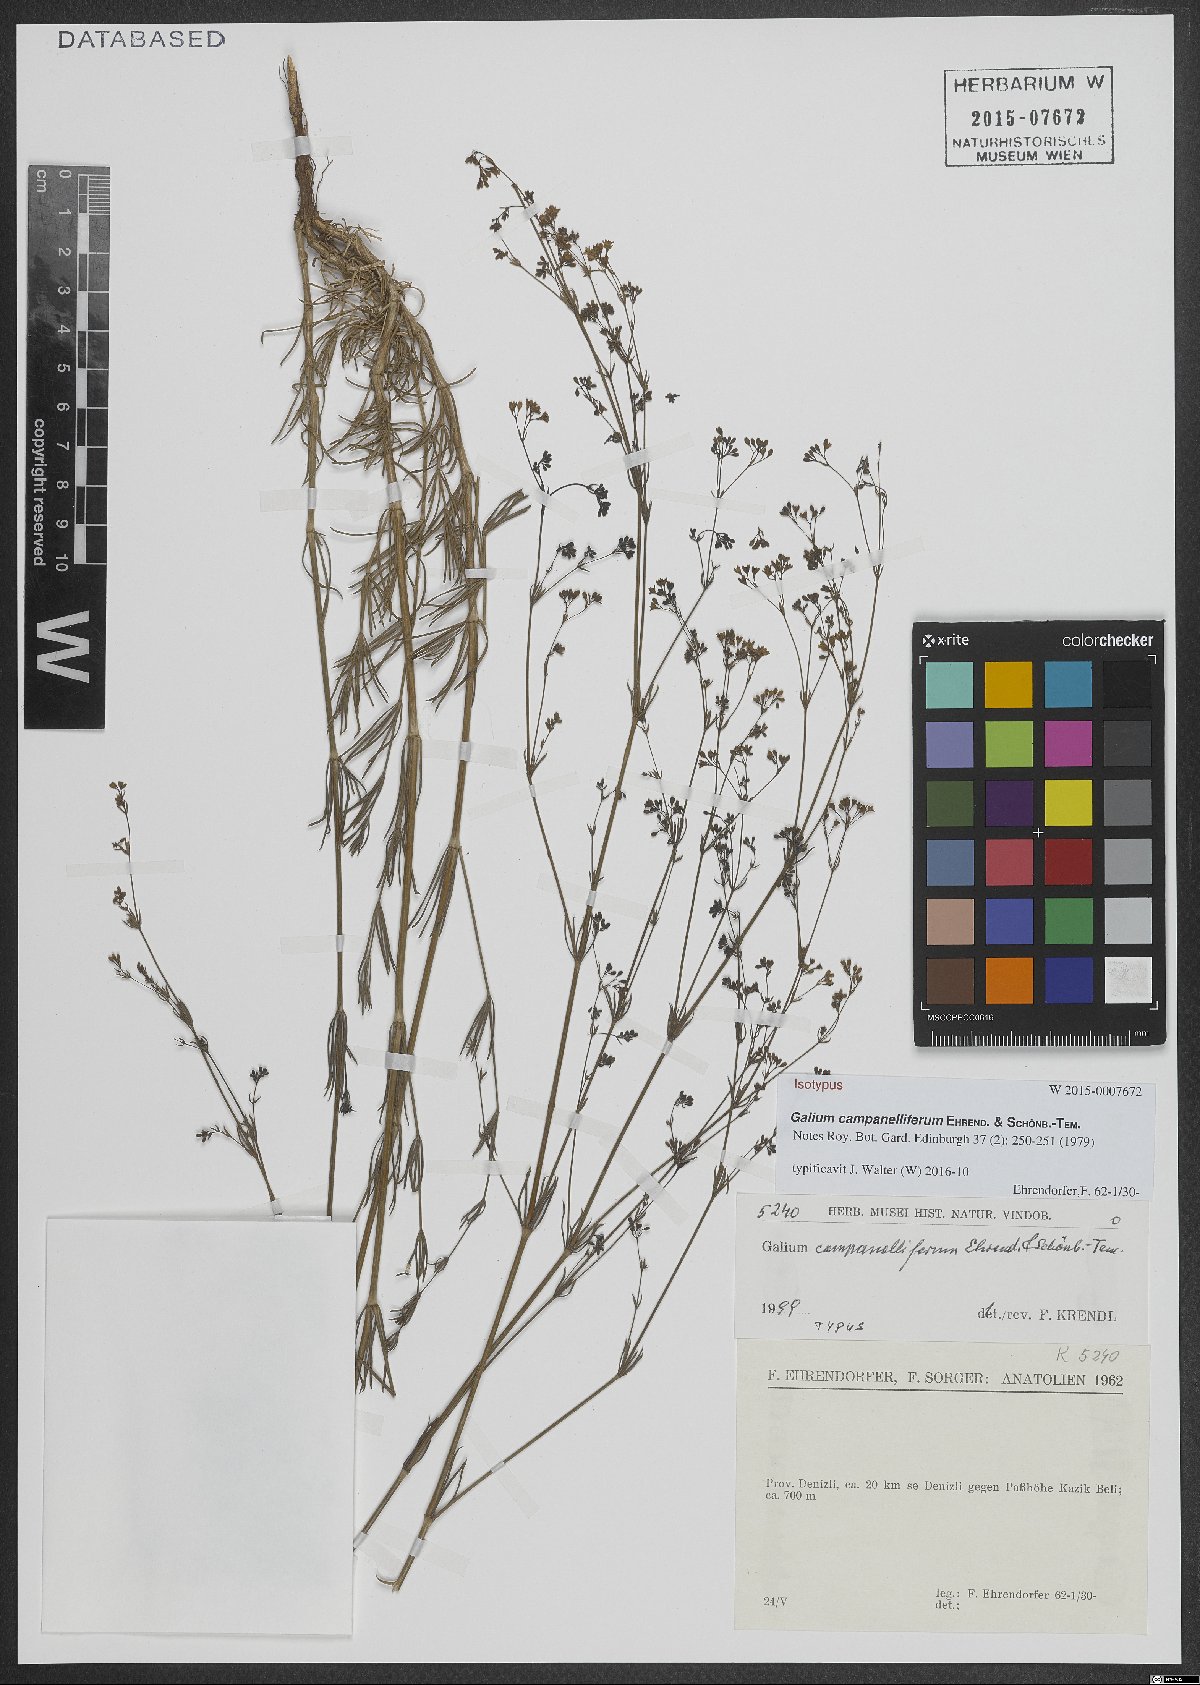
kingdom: Plantae
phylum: Tracheophyta
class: Magnoliopsida
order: Gentianales
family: Rubiaceae
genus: Galium
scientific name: Galium campanelliferum
